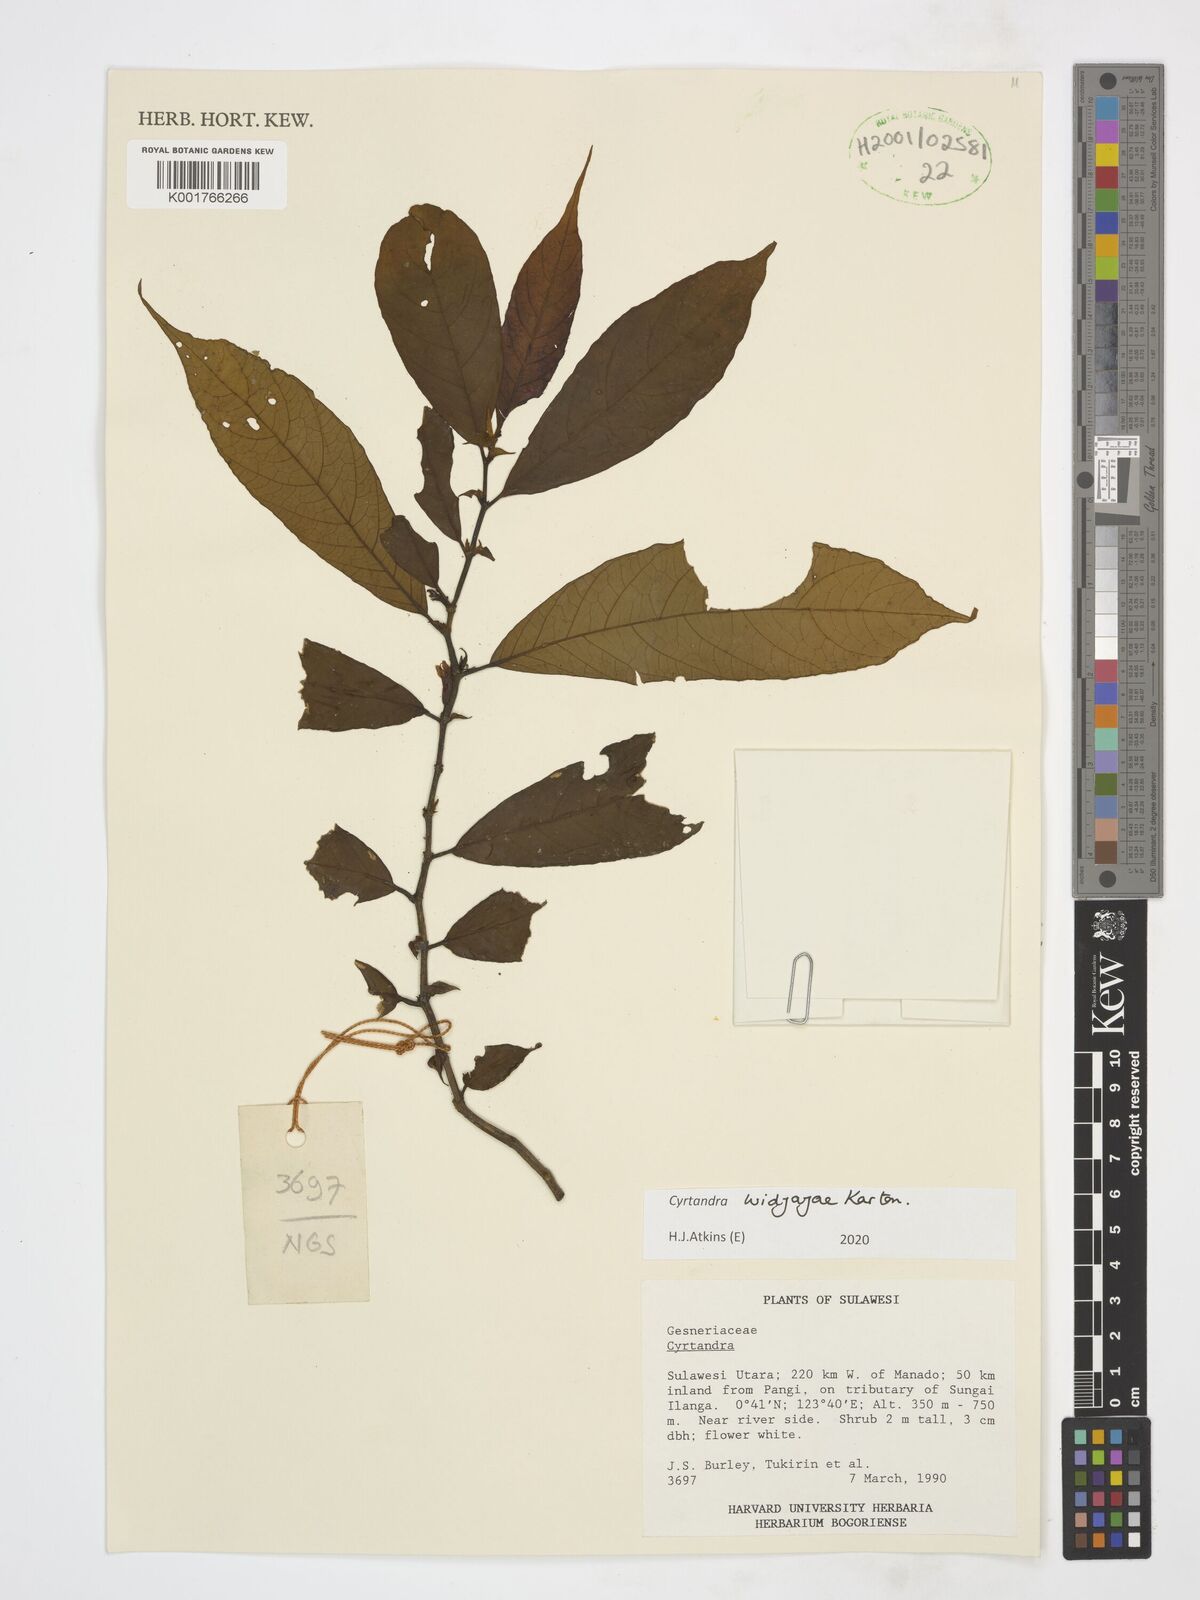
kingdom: Plantae
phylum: Tracheophyta
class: Magnoliopsida
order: Lamiales
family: Gesneriaceae
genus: Cyrtandra
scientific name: Cyrtandra widjajae
